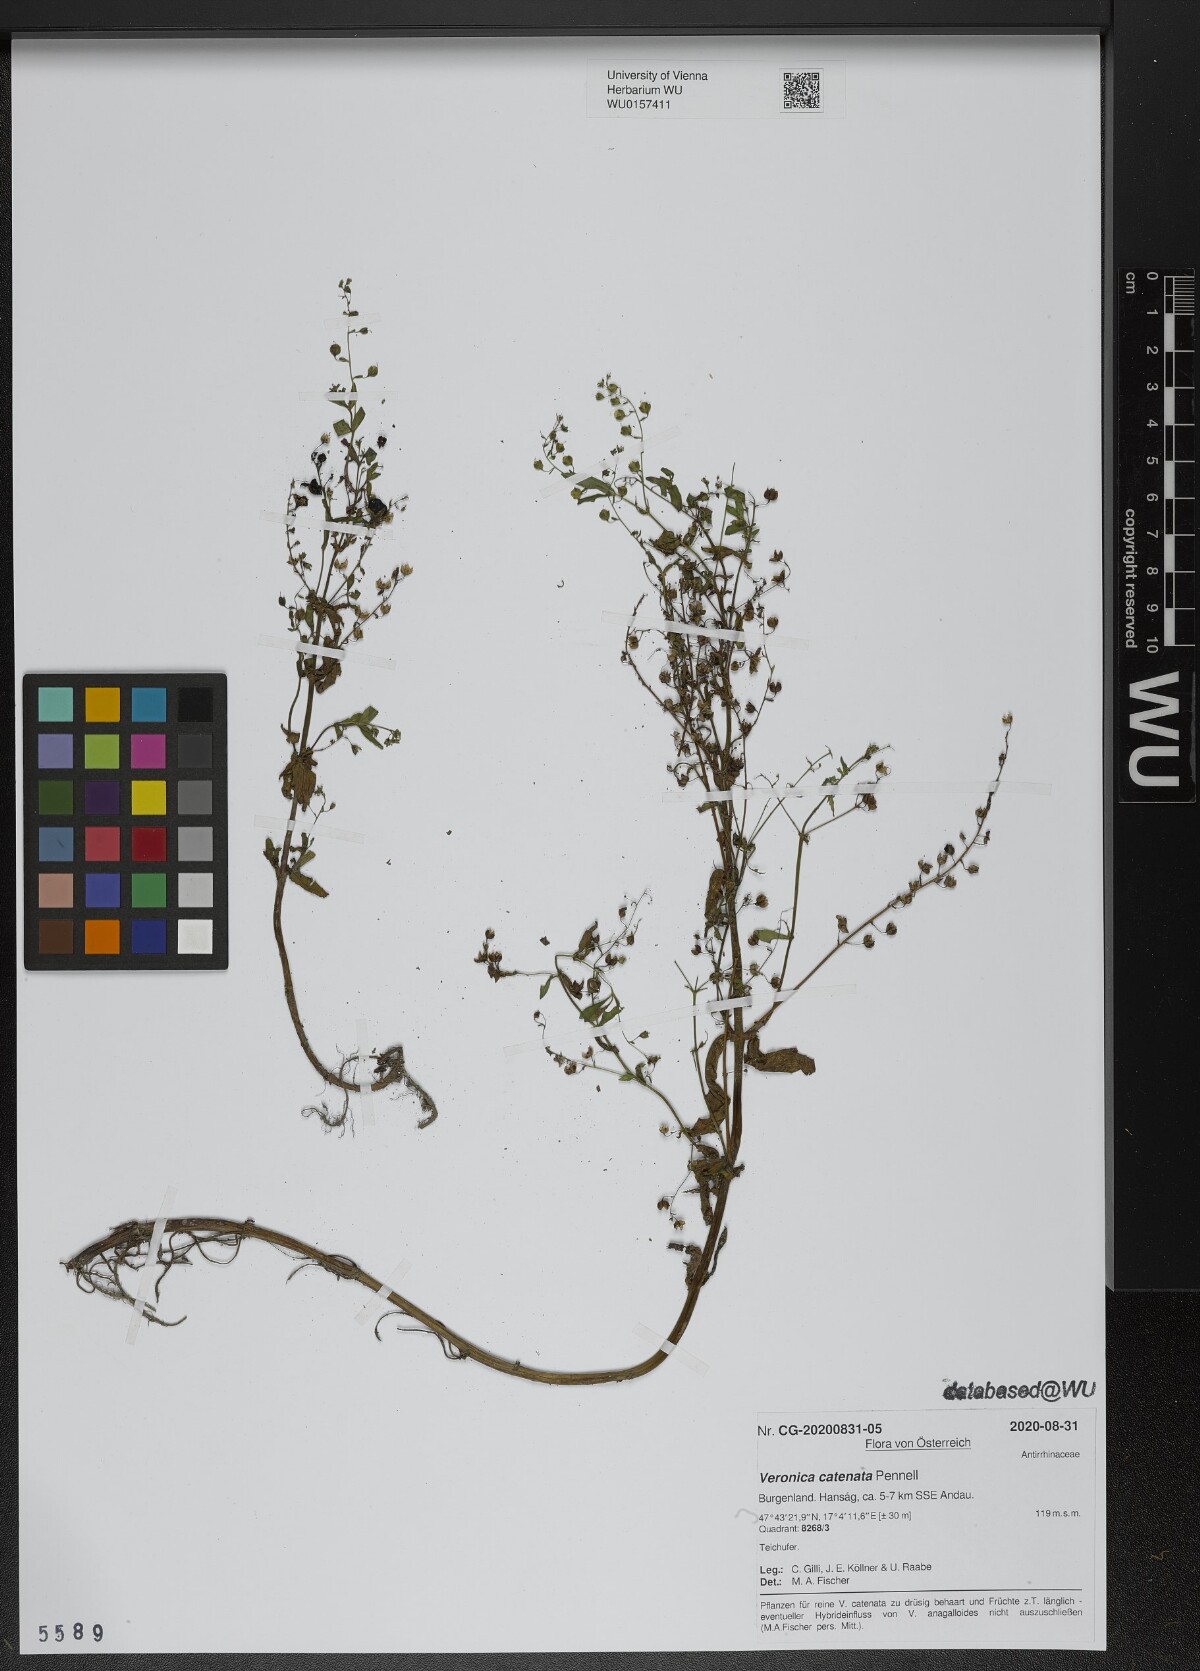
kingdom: Plantae
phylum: Tracheophyta
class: Magnoliopsida
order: Lamiales
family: Plantaginaceae
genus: Veronica
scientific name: Veronica catenata
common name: Pink water-speedwell
